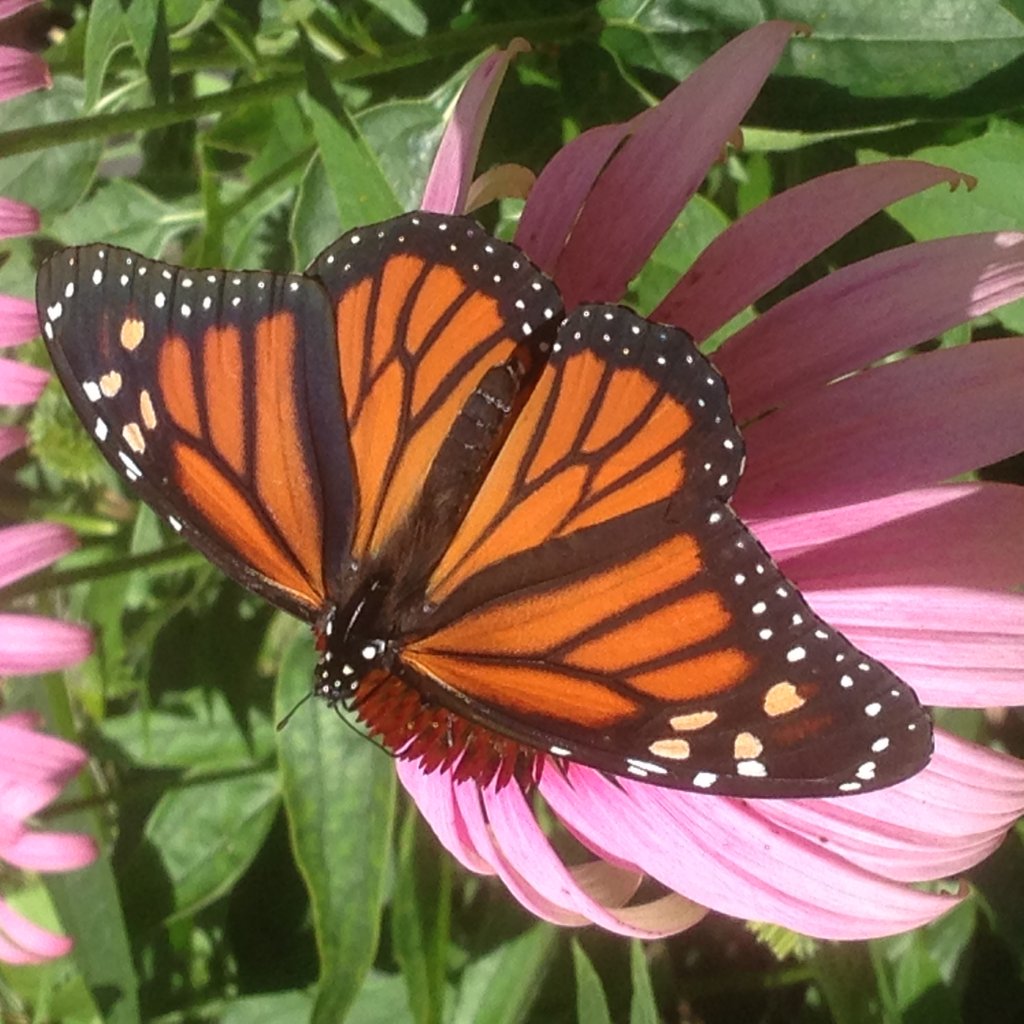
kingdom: Animalia
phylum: Arthropoda
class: Insecta
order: Lepidoptera
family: Nymphalidae
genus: Danaus
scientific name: Danaus plexippus
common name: Monarch
